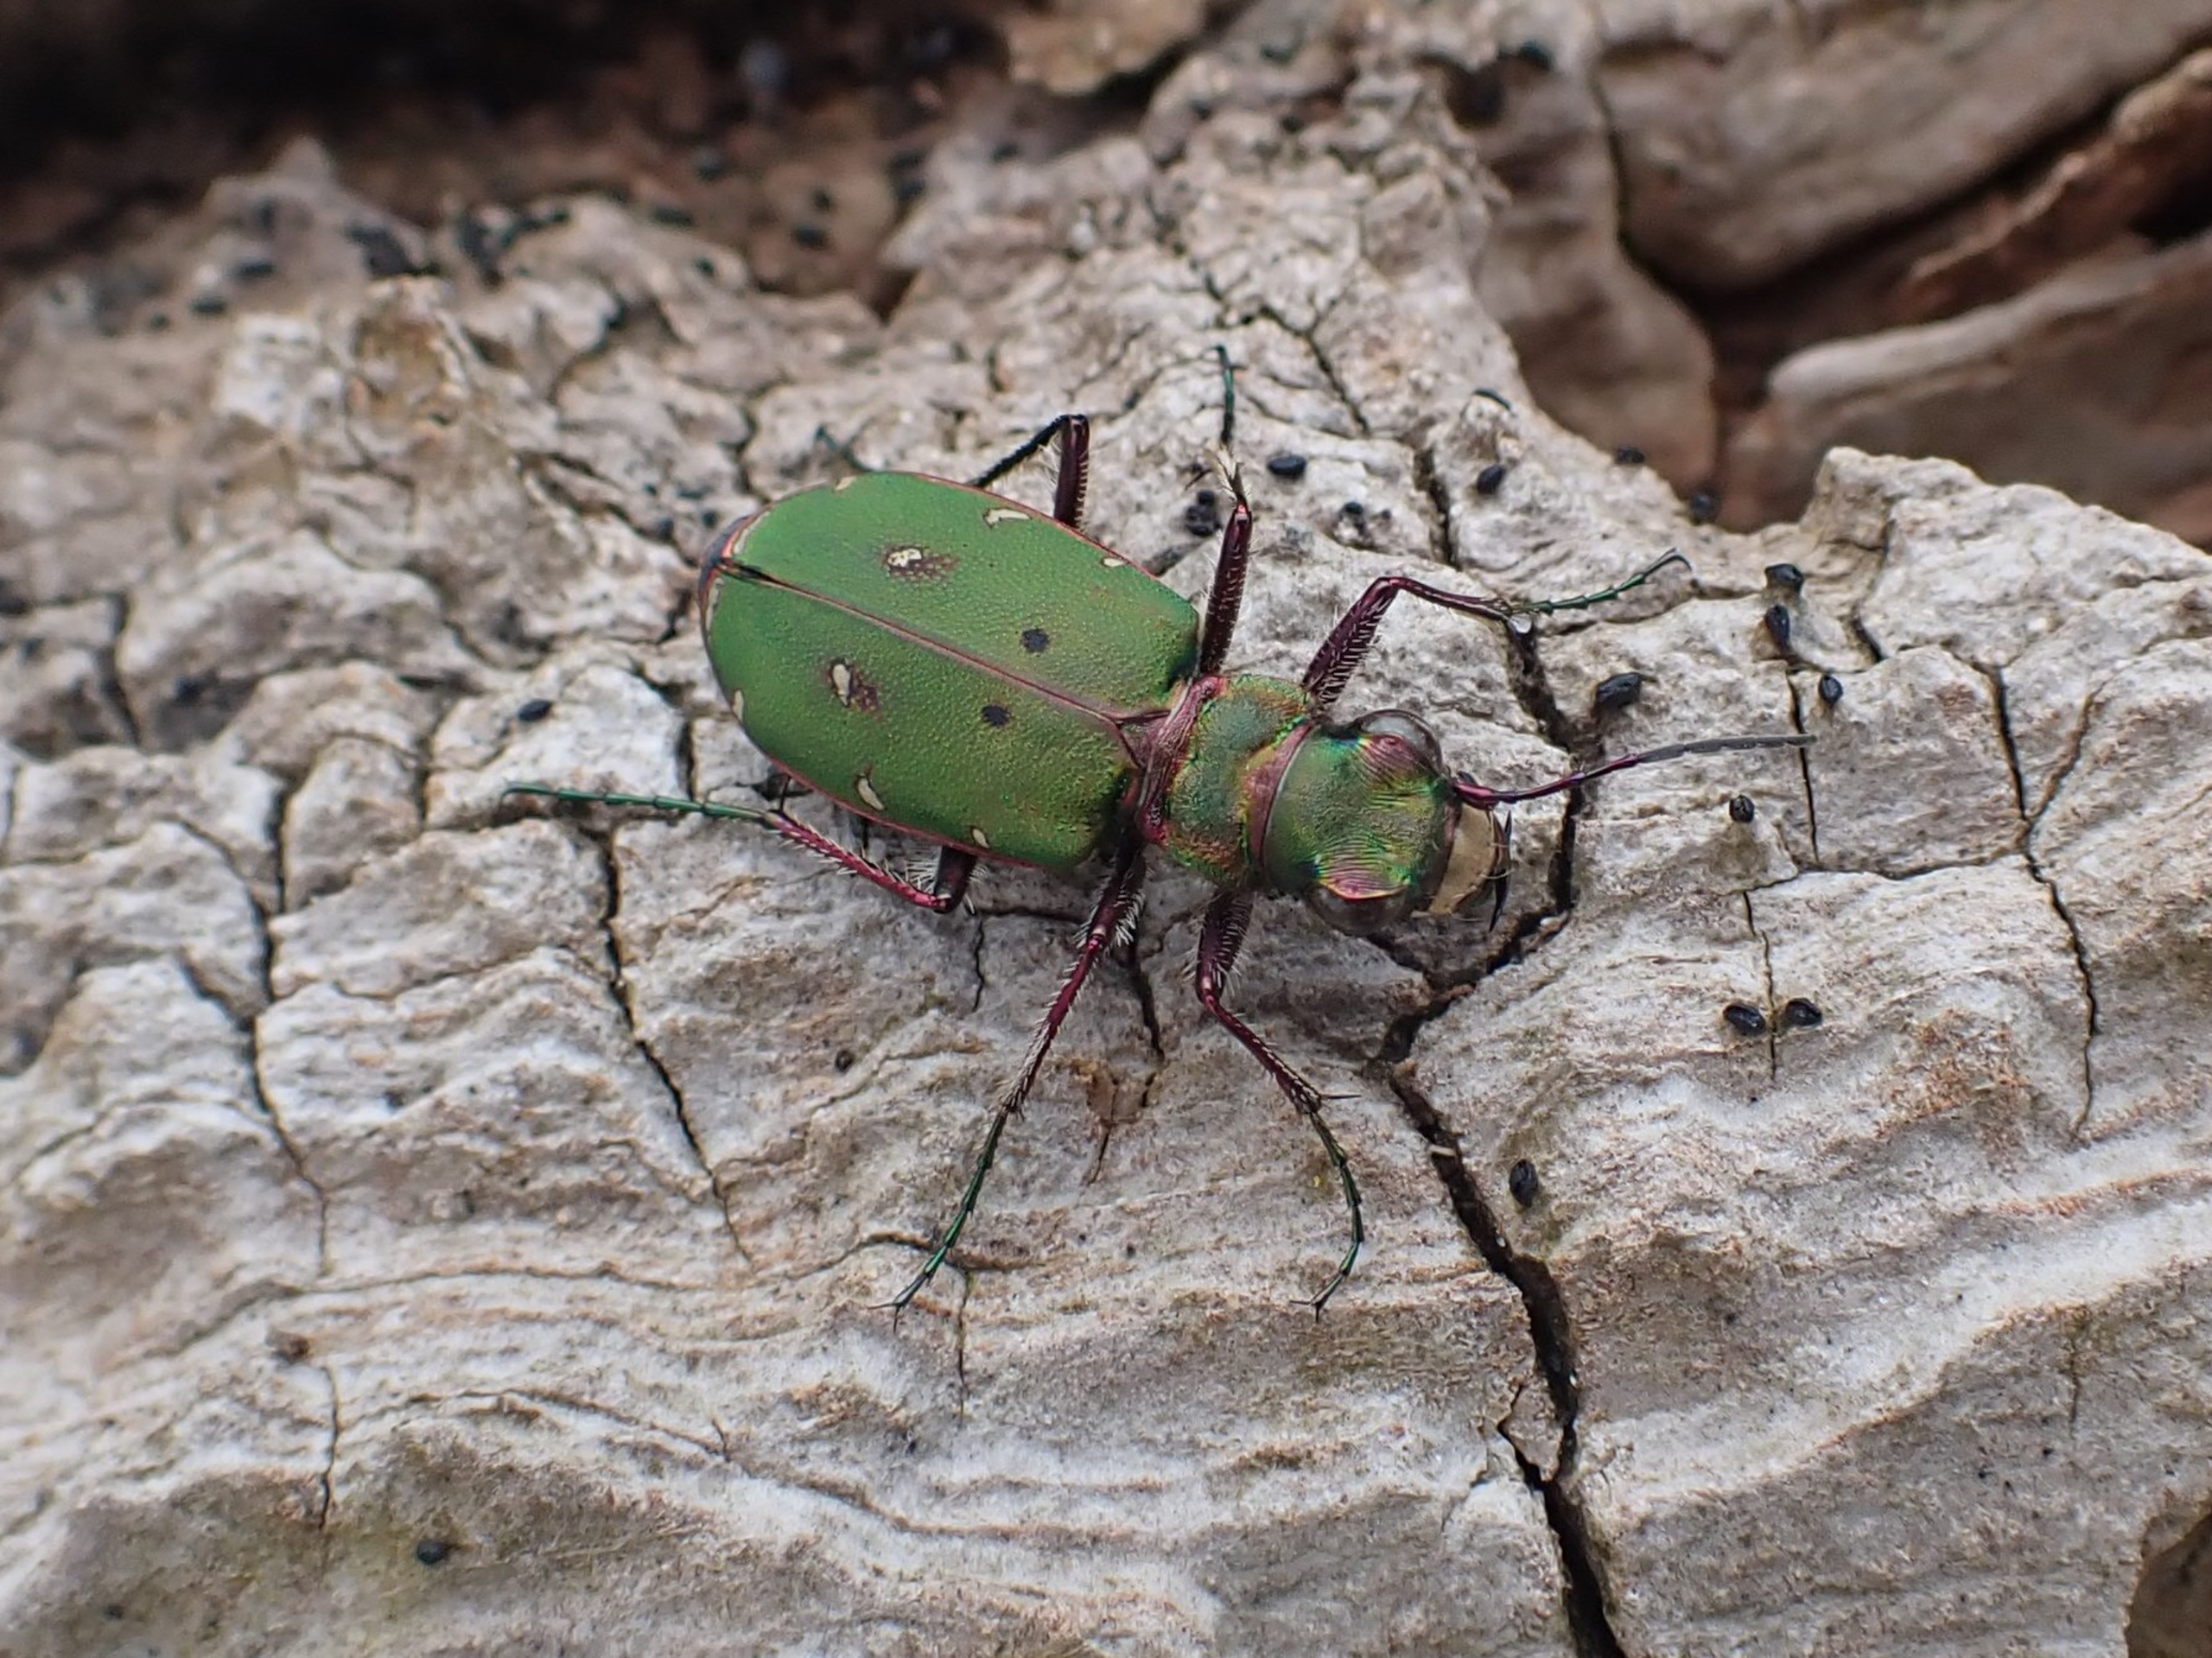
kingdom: Animalia
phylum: Arthropoda
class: Insecta
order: Coleoptera
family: Carabidae
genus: Cicindela
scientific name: Cicindela campestris
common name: Grøn sandspringer
